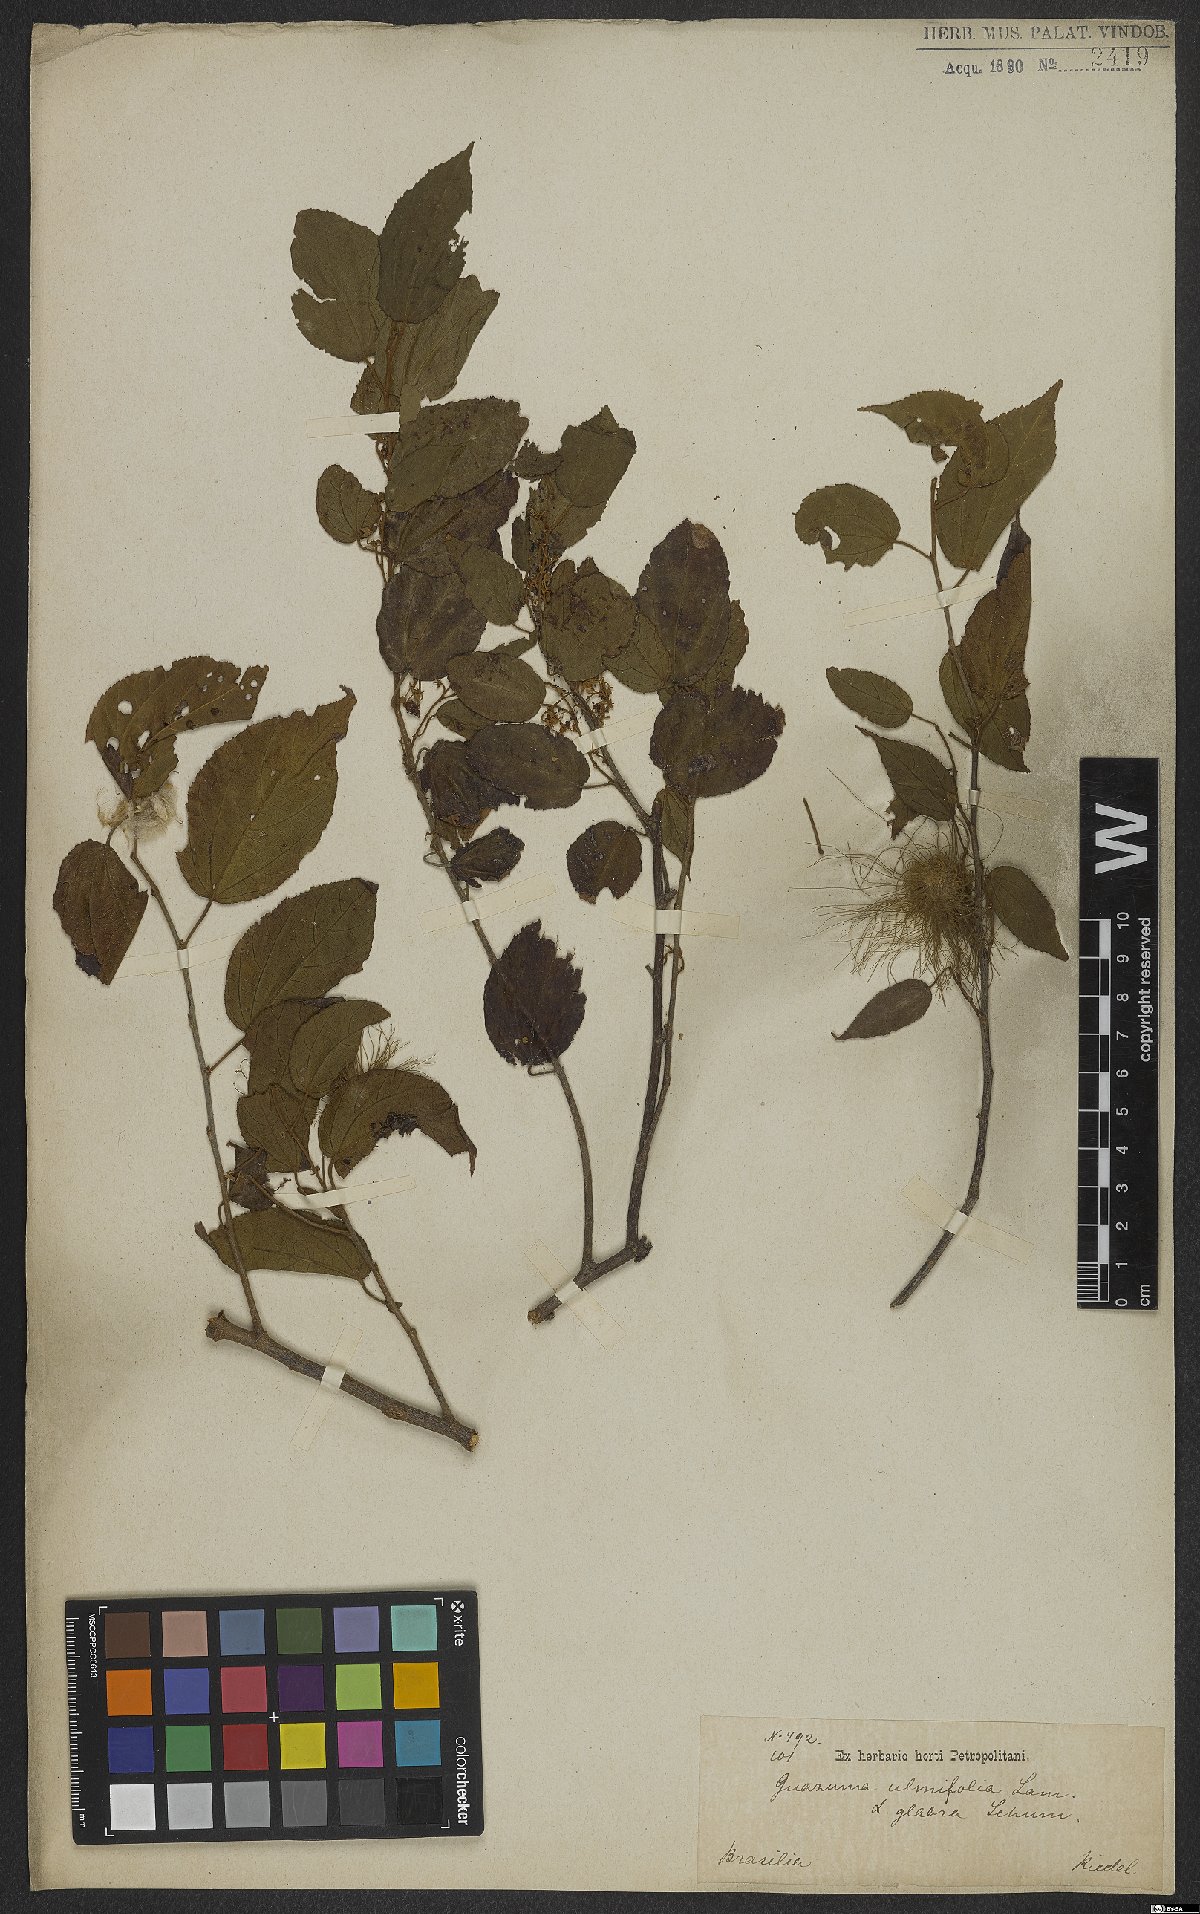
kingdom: Plantae
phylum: Tracheophyta
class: Magnoliopsida
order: Malvales
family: Malvaceae
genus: Guazuma
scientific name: Guazuma ulmifolia
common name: Bastard-cedar
